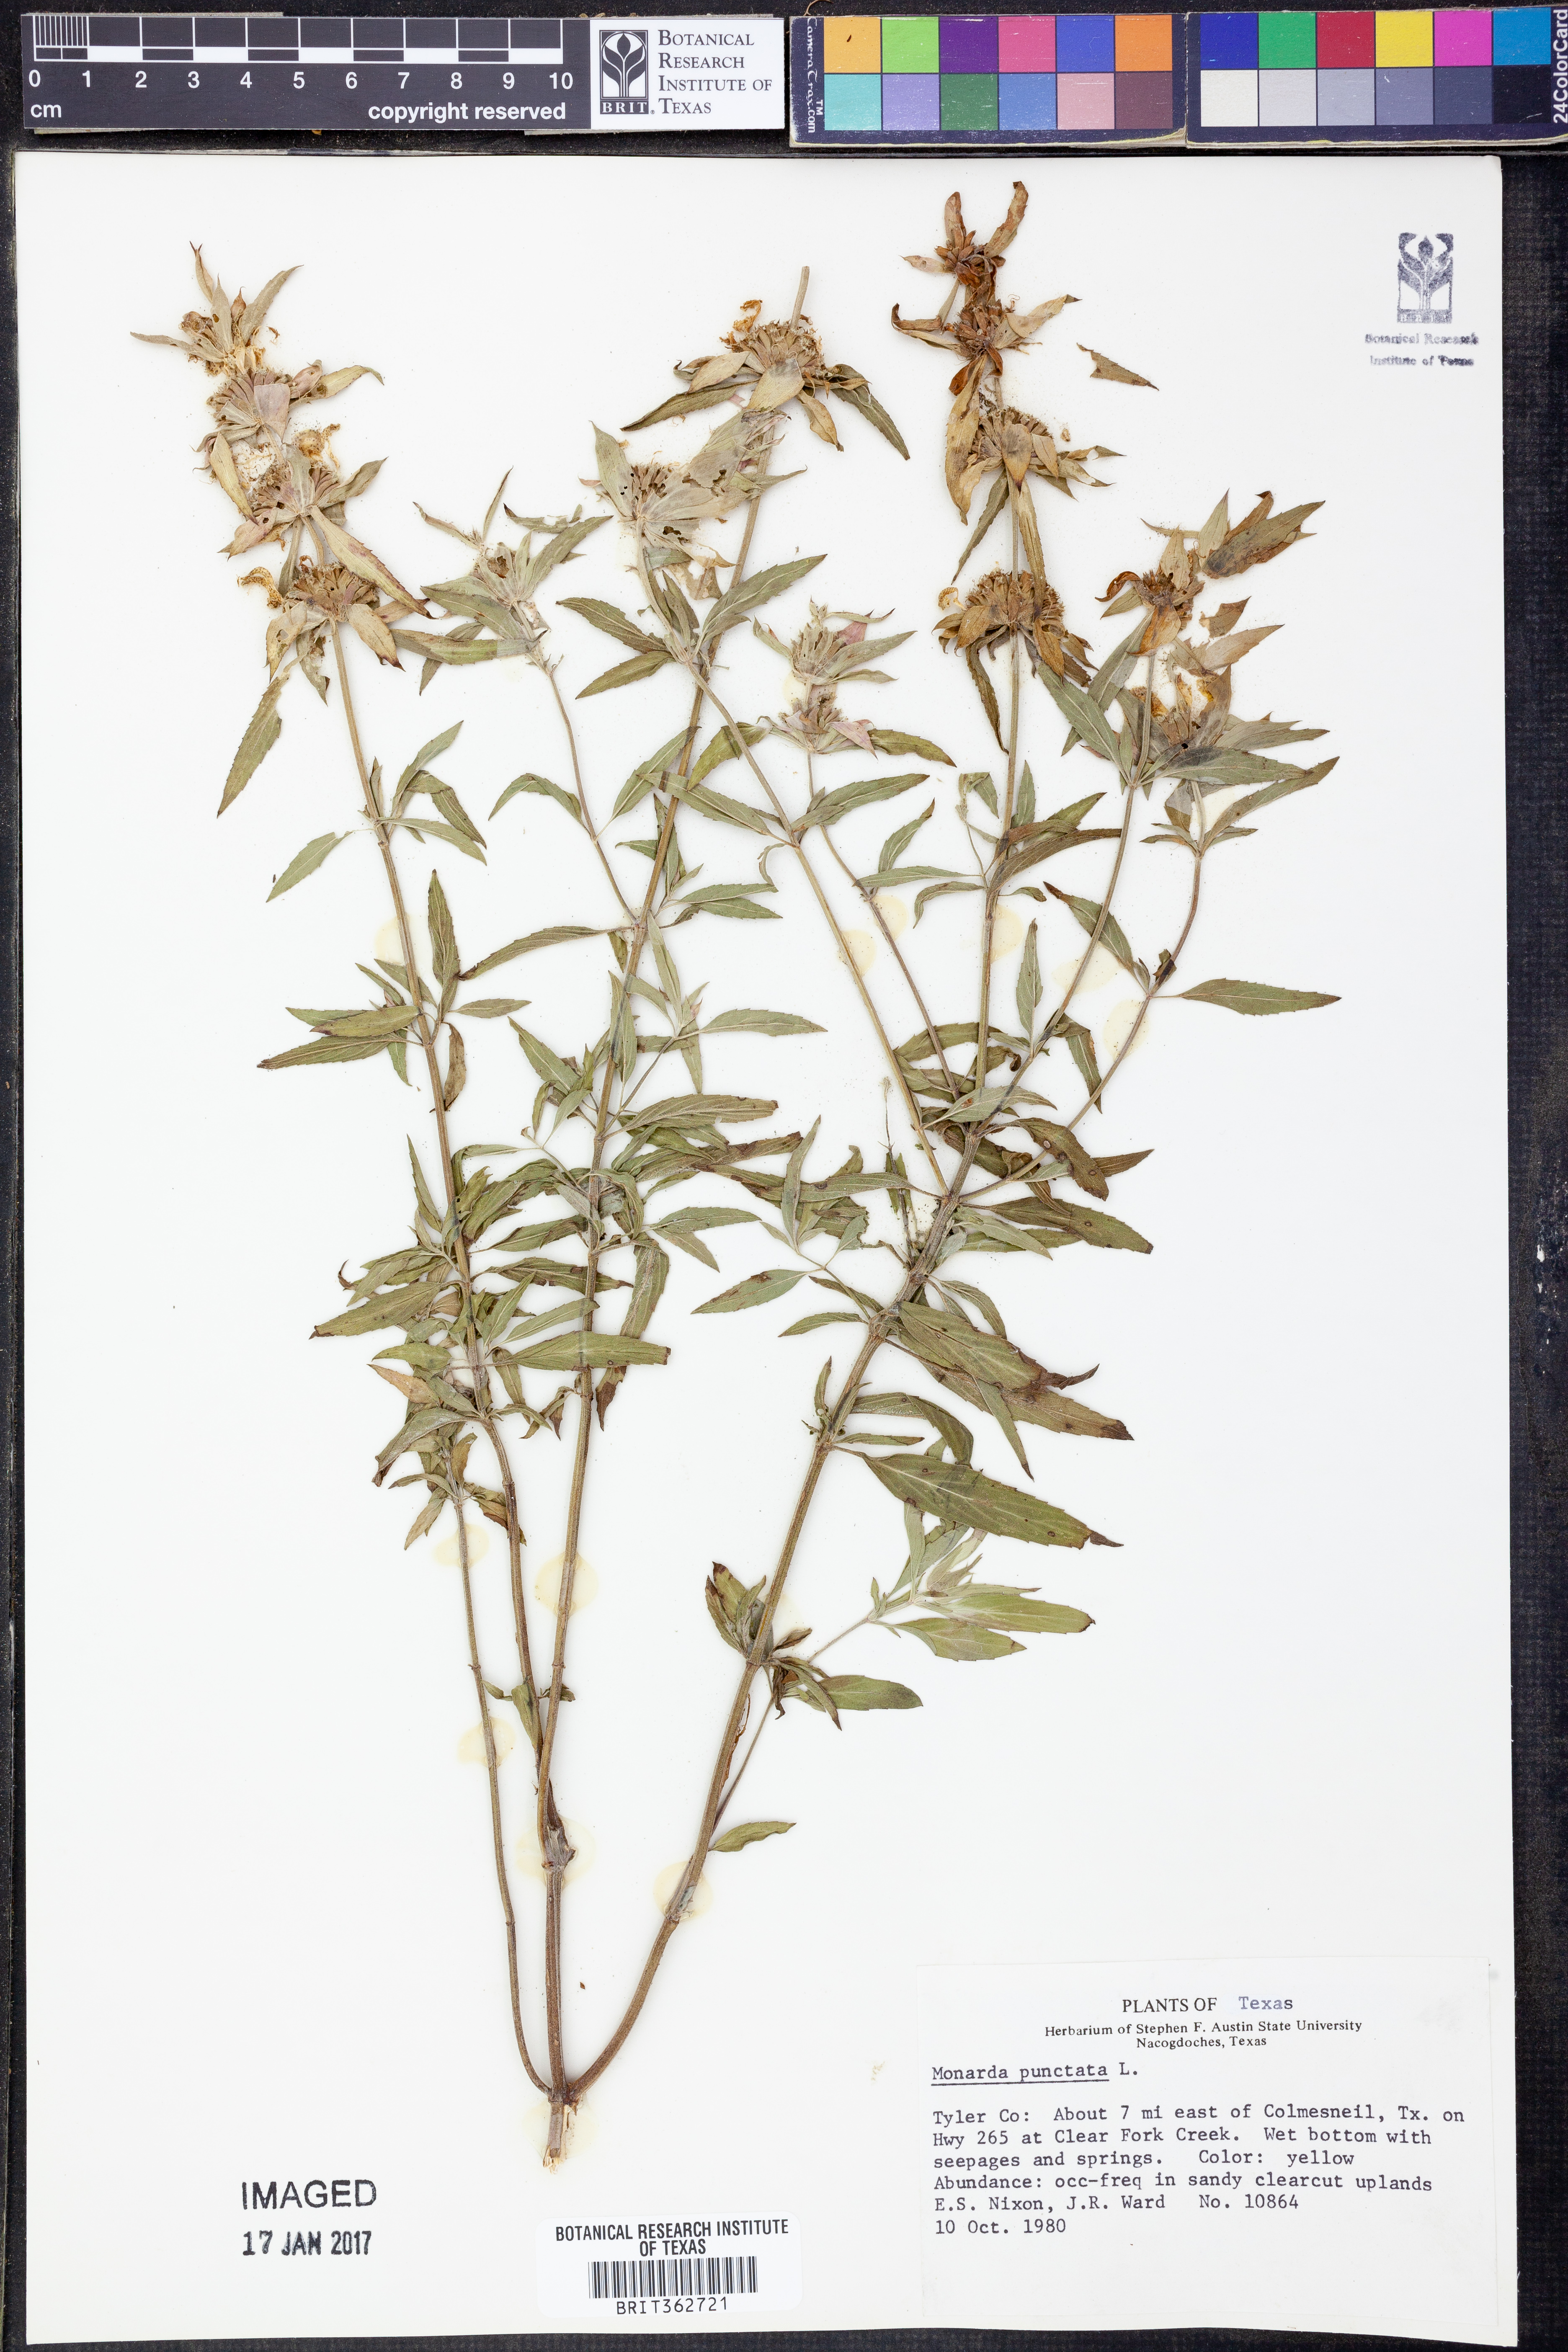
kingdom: Plantae
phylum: Tracheophyta
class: Magnoliopsida
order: Lamiales
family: Lamiaceae
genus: Monarda
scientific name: Monarda punctata
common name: Dotted monarda
